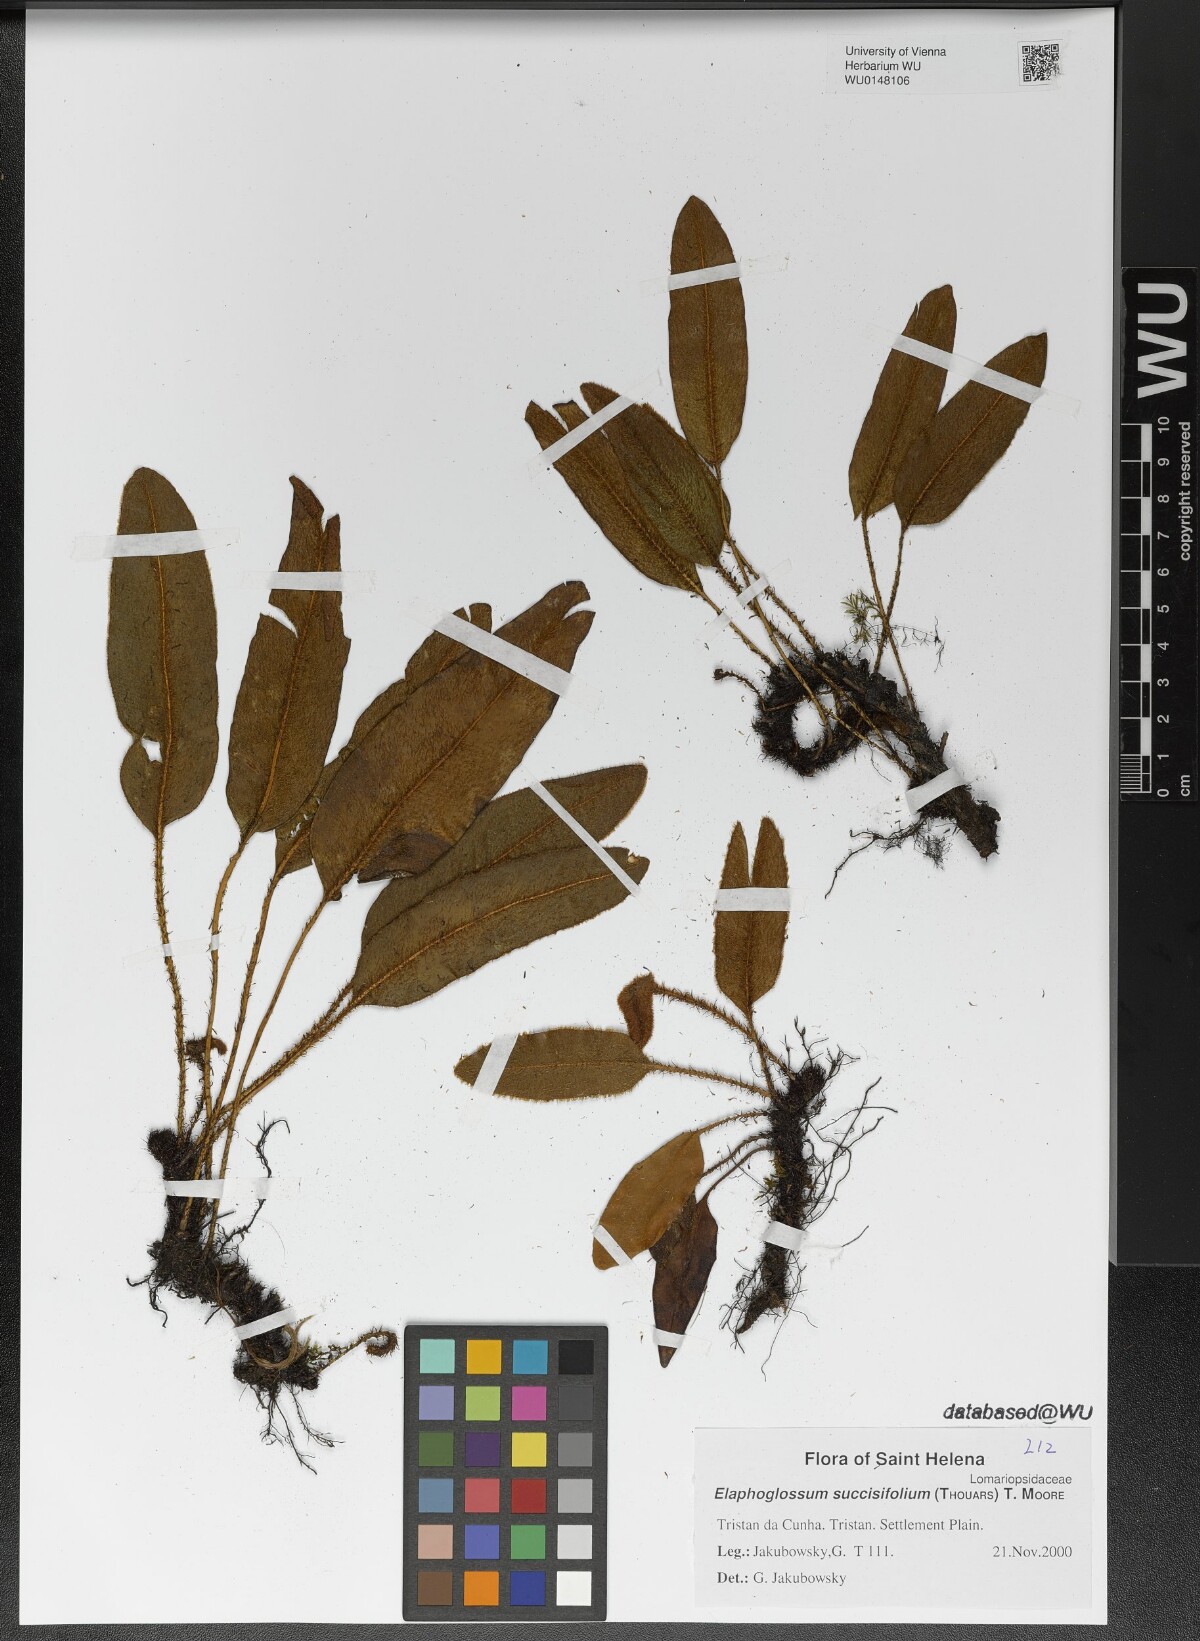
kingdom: Plantae
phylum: Tracheophyta
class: Polypodiopsida
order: Polypodiales
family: Dryopteridaceae
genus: Elaphoglossum
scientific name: Elaphoglossum succisifolium
